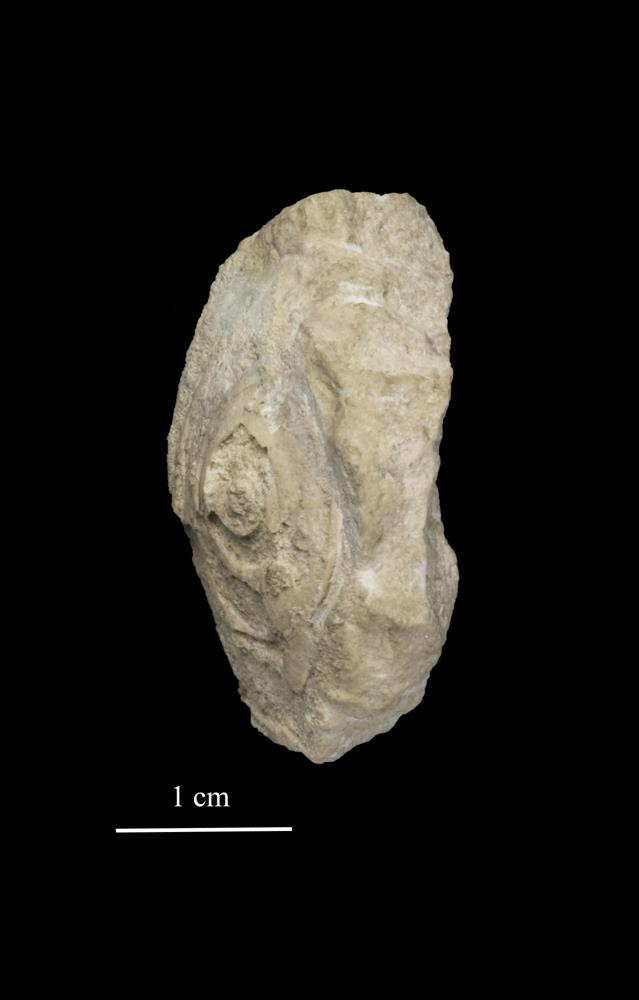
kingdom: Animalia
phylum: Mollusca
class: Gastropoda
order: Pleurotomariida
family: Planitrochidae
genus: Trochomphalus
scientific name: Trochomphalus Pycnomphalus borkholmiensis
